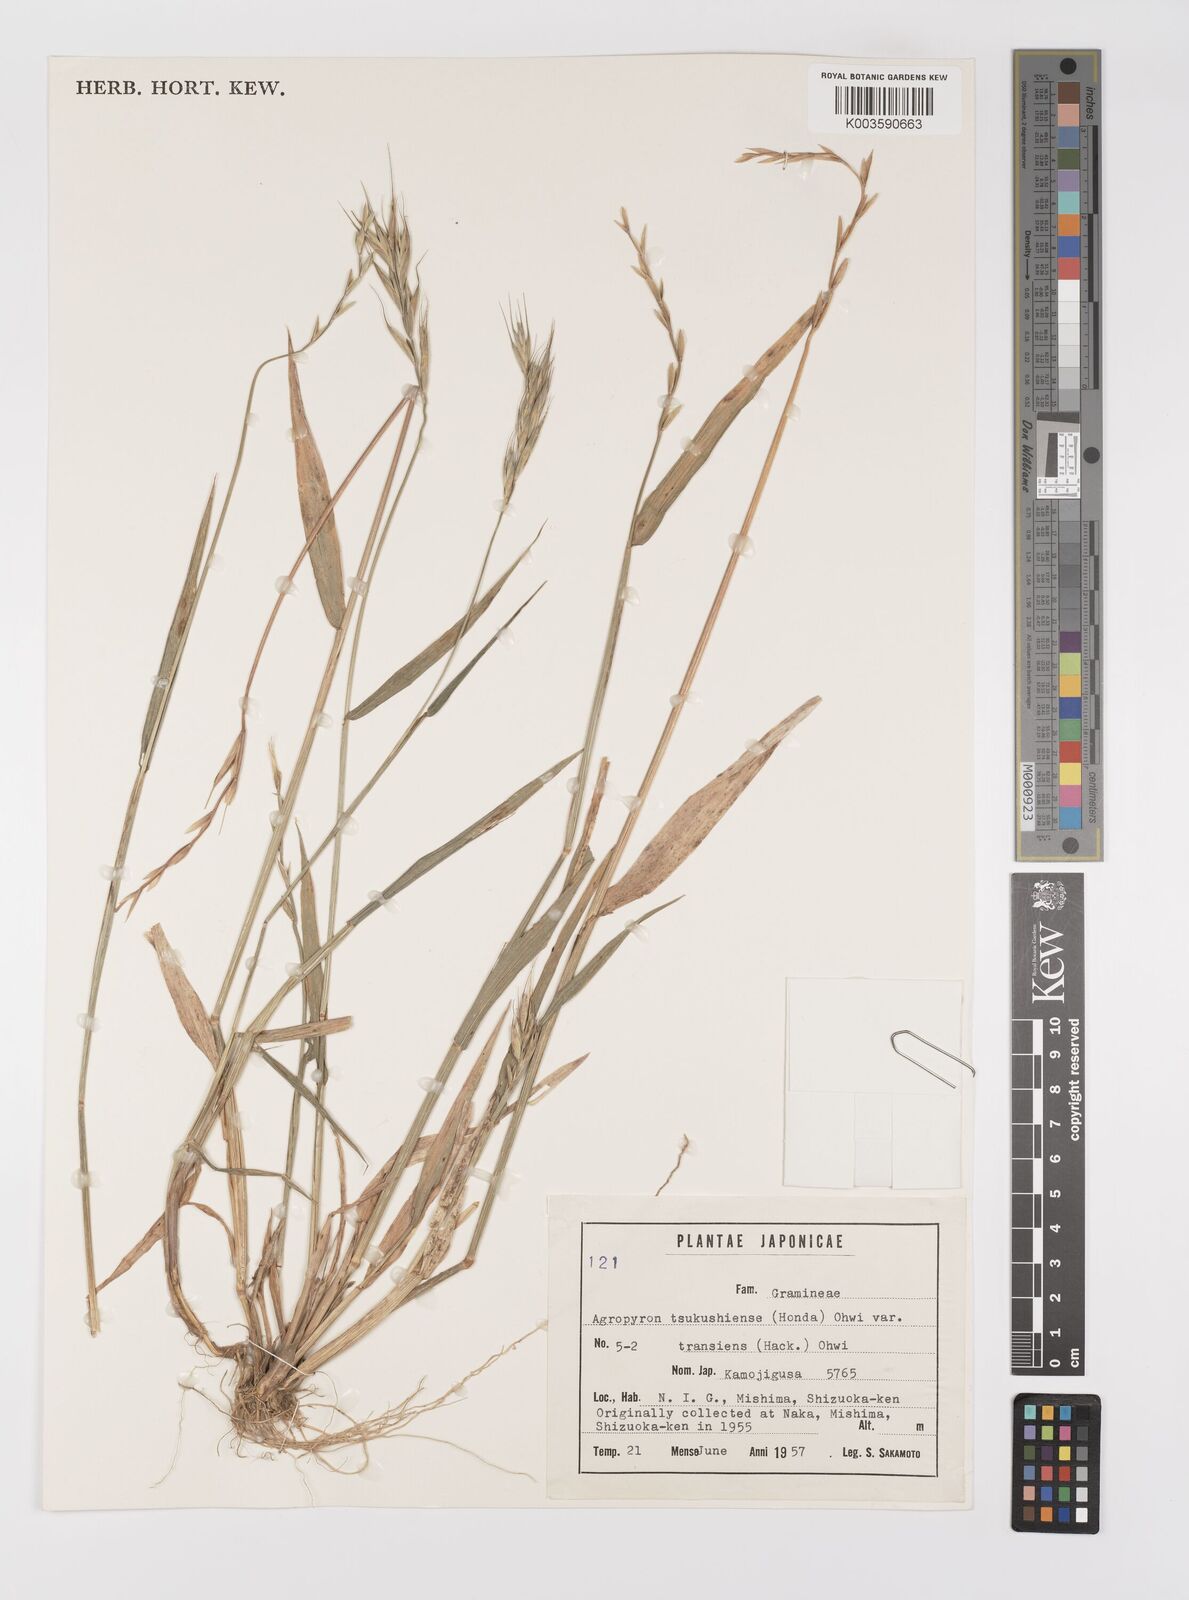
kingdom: Plantae
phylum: Tracheophyta
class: Liliopsida
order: Poales
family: Poaceae
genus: Elymus
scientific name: Elymus tsukushiensis
